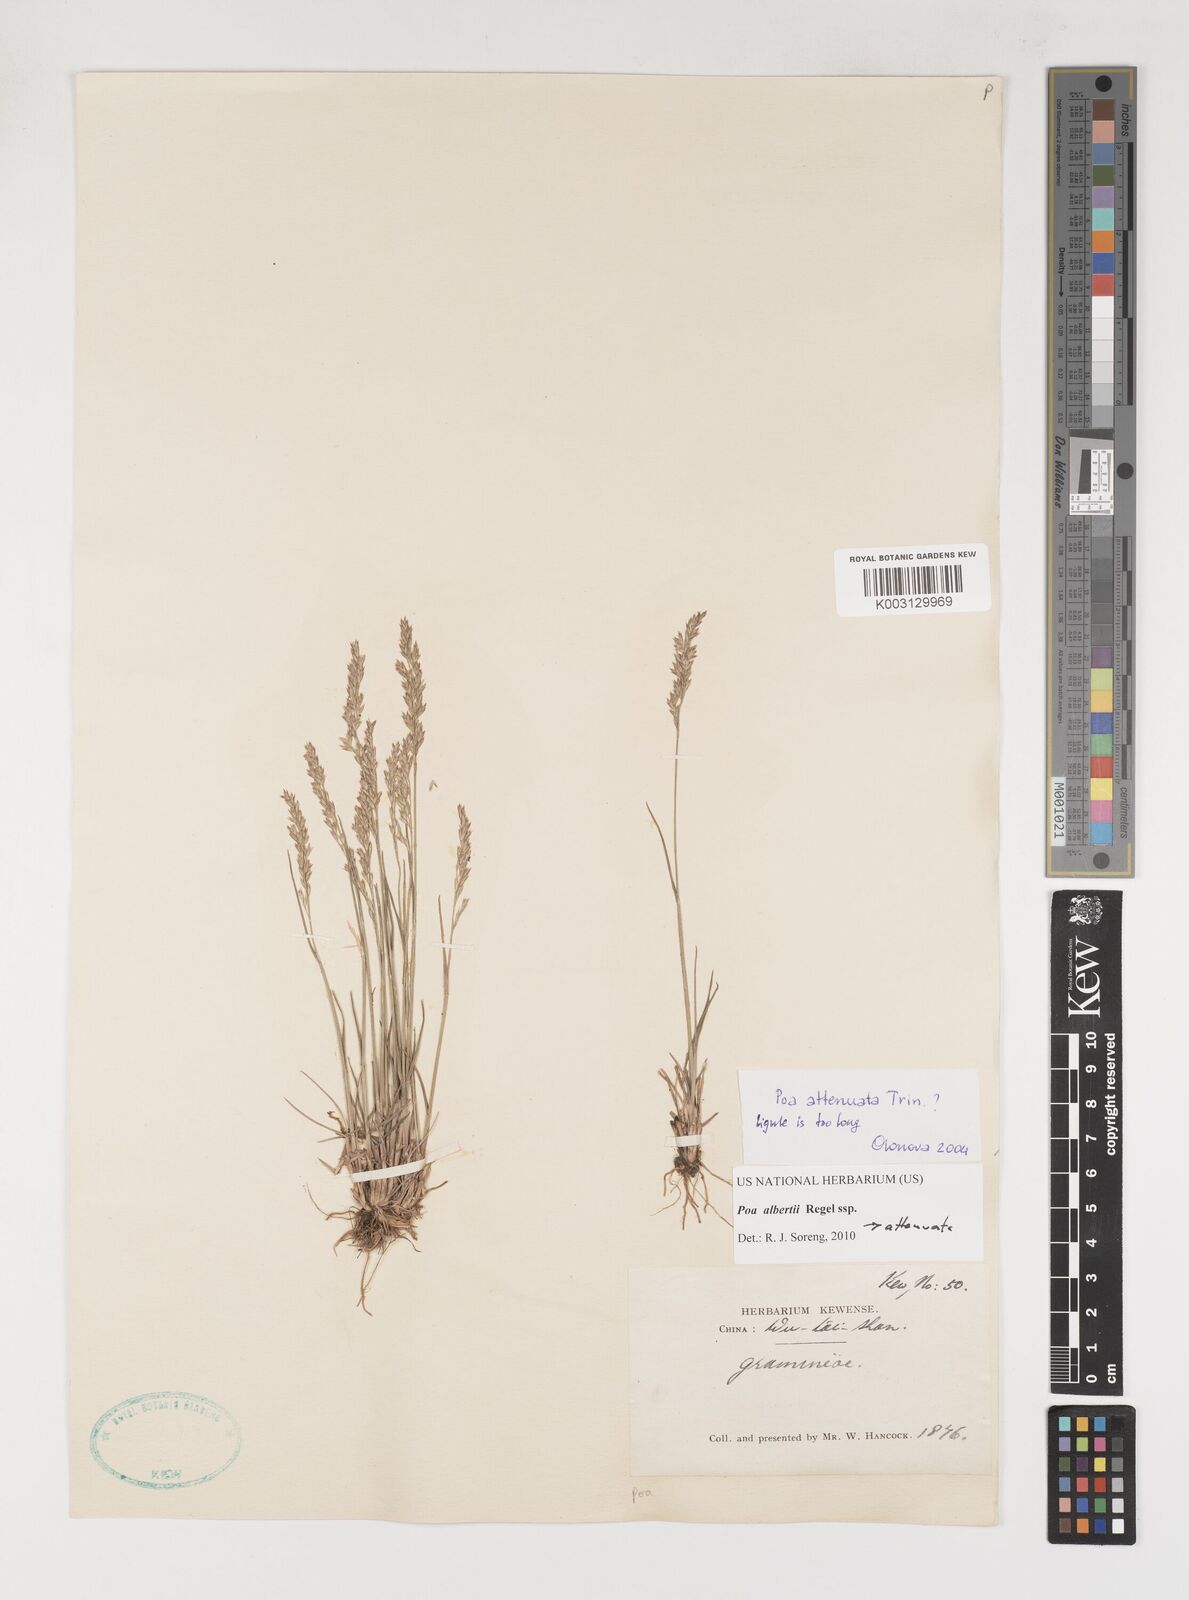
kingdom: Plantae
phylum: Tracheophyta
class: Liliopsida
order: Poales
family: Poaceae
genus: Poa
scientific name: Poa attenuata
